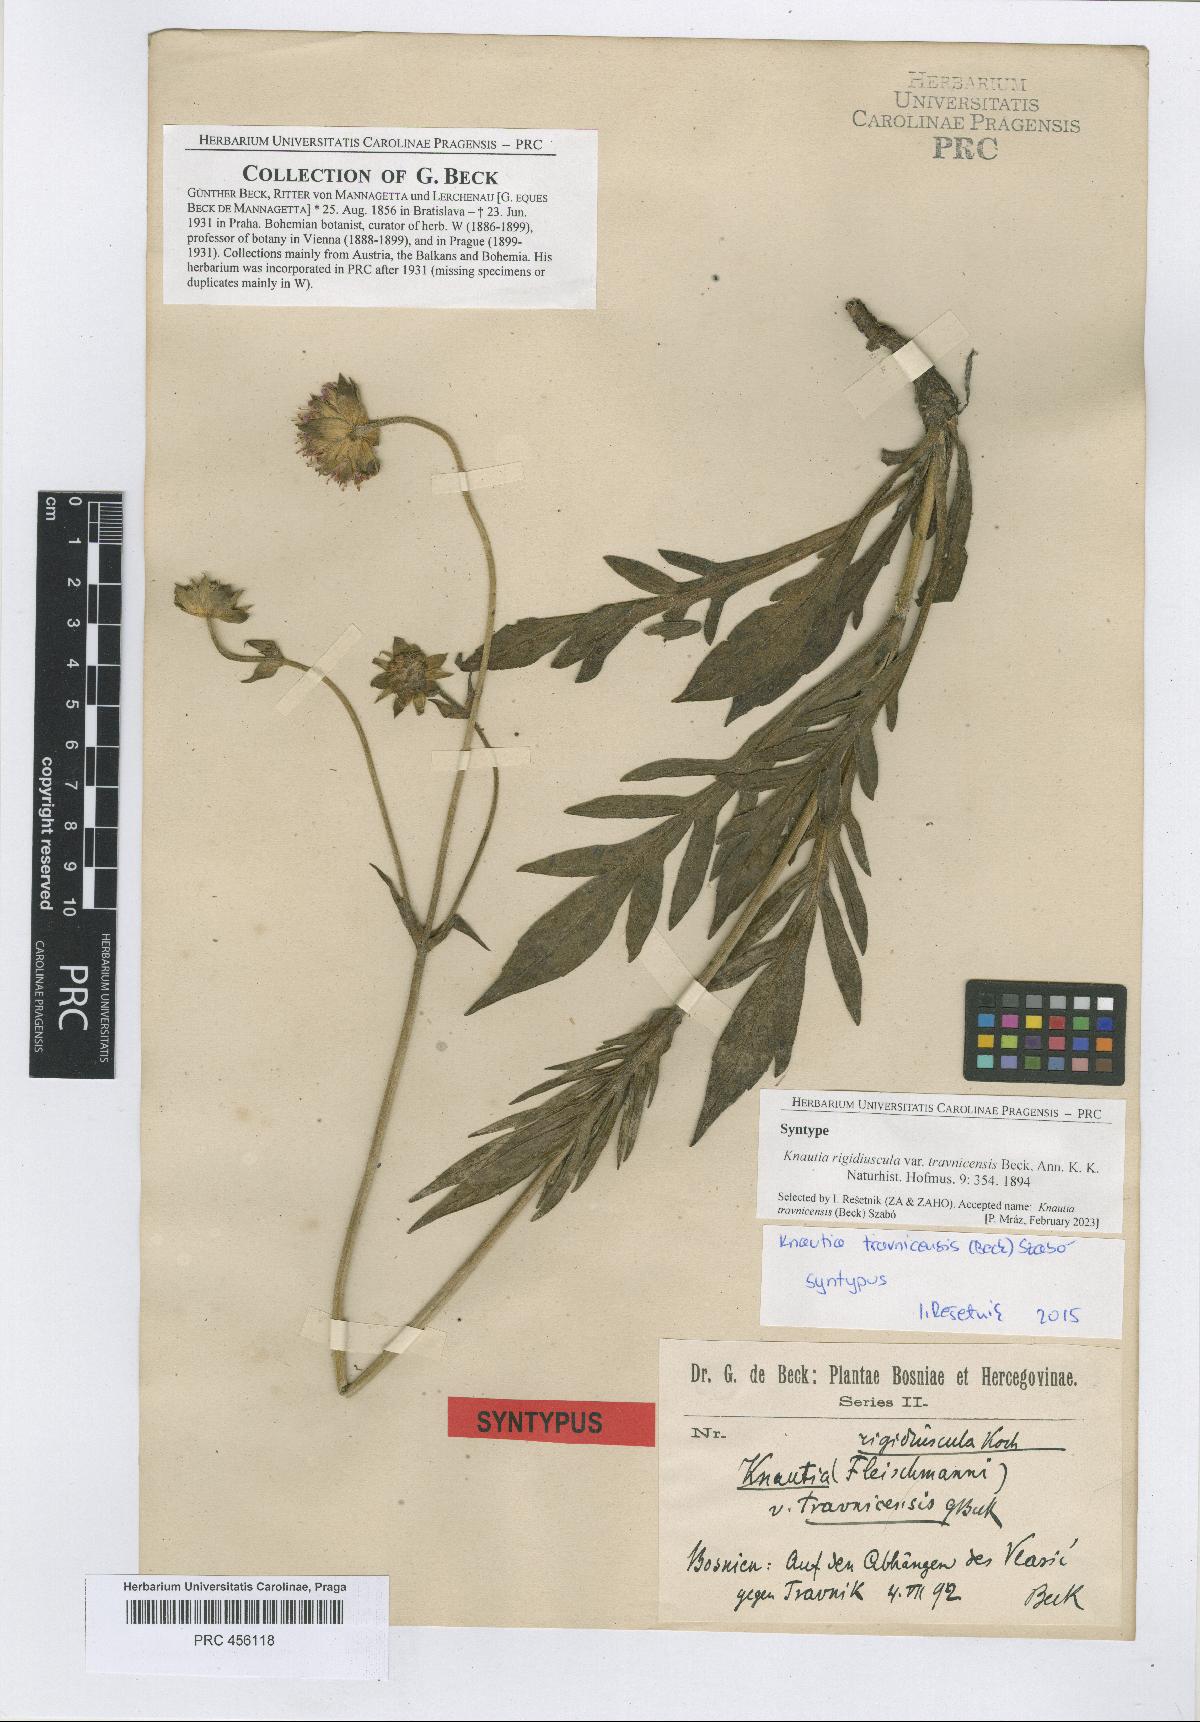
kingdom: Plantae
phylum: Tracheophyta
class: Magnoliopsida
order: Dipsacales
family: Caprifoliaceae
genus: Knautia
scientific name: Knautia travnicensis
